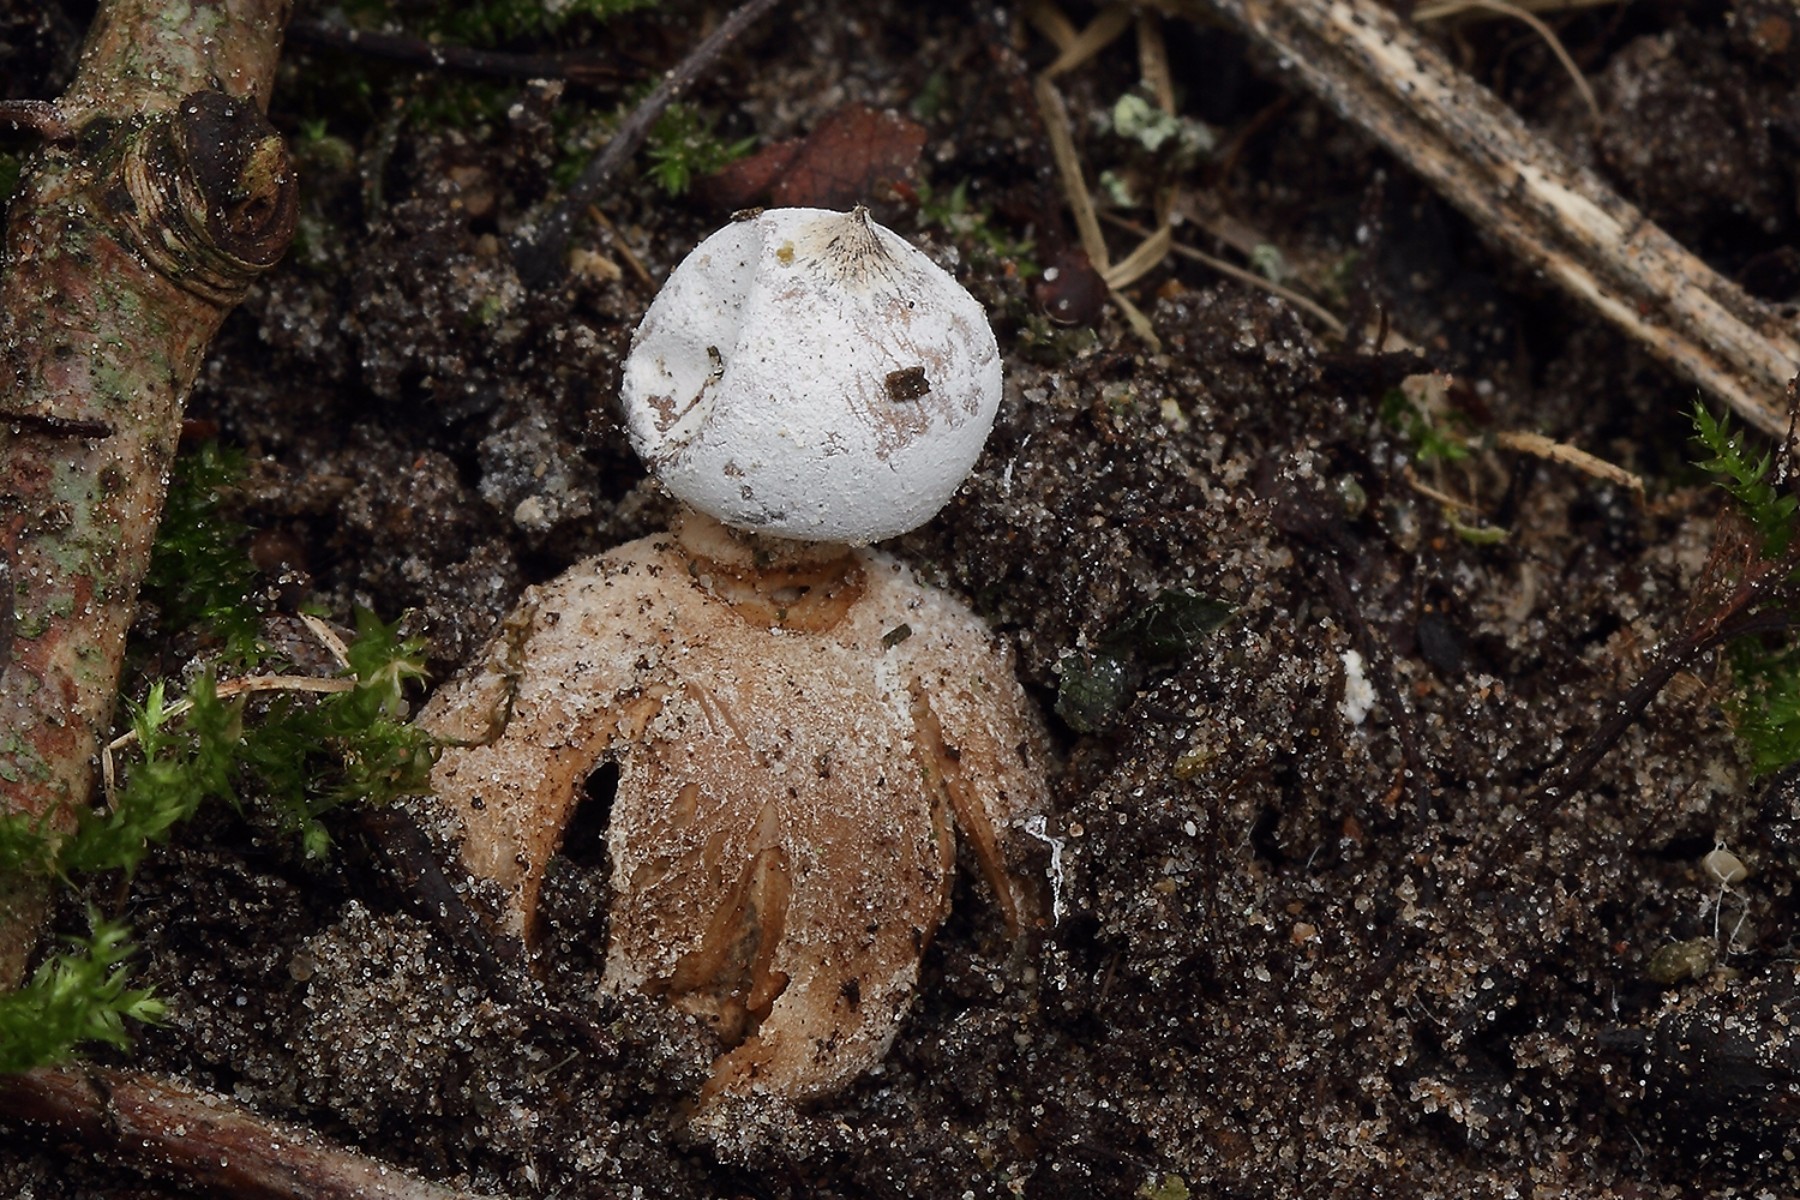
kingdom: Fungi
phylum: Basidiomycota
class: Agaricomycetes
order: Geastrales
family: Geastraceae
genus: Geastrum
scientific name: Geastrum striatum
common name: krave-stjernebold
